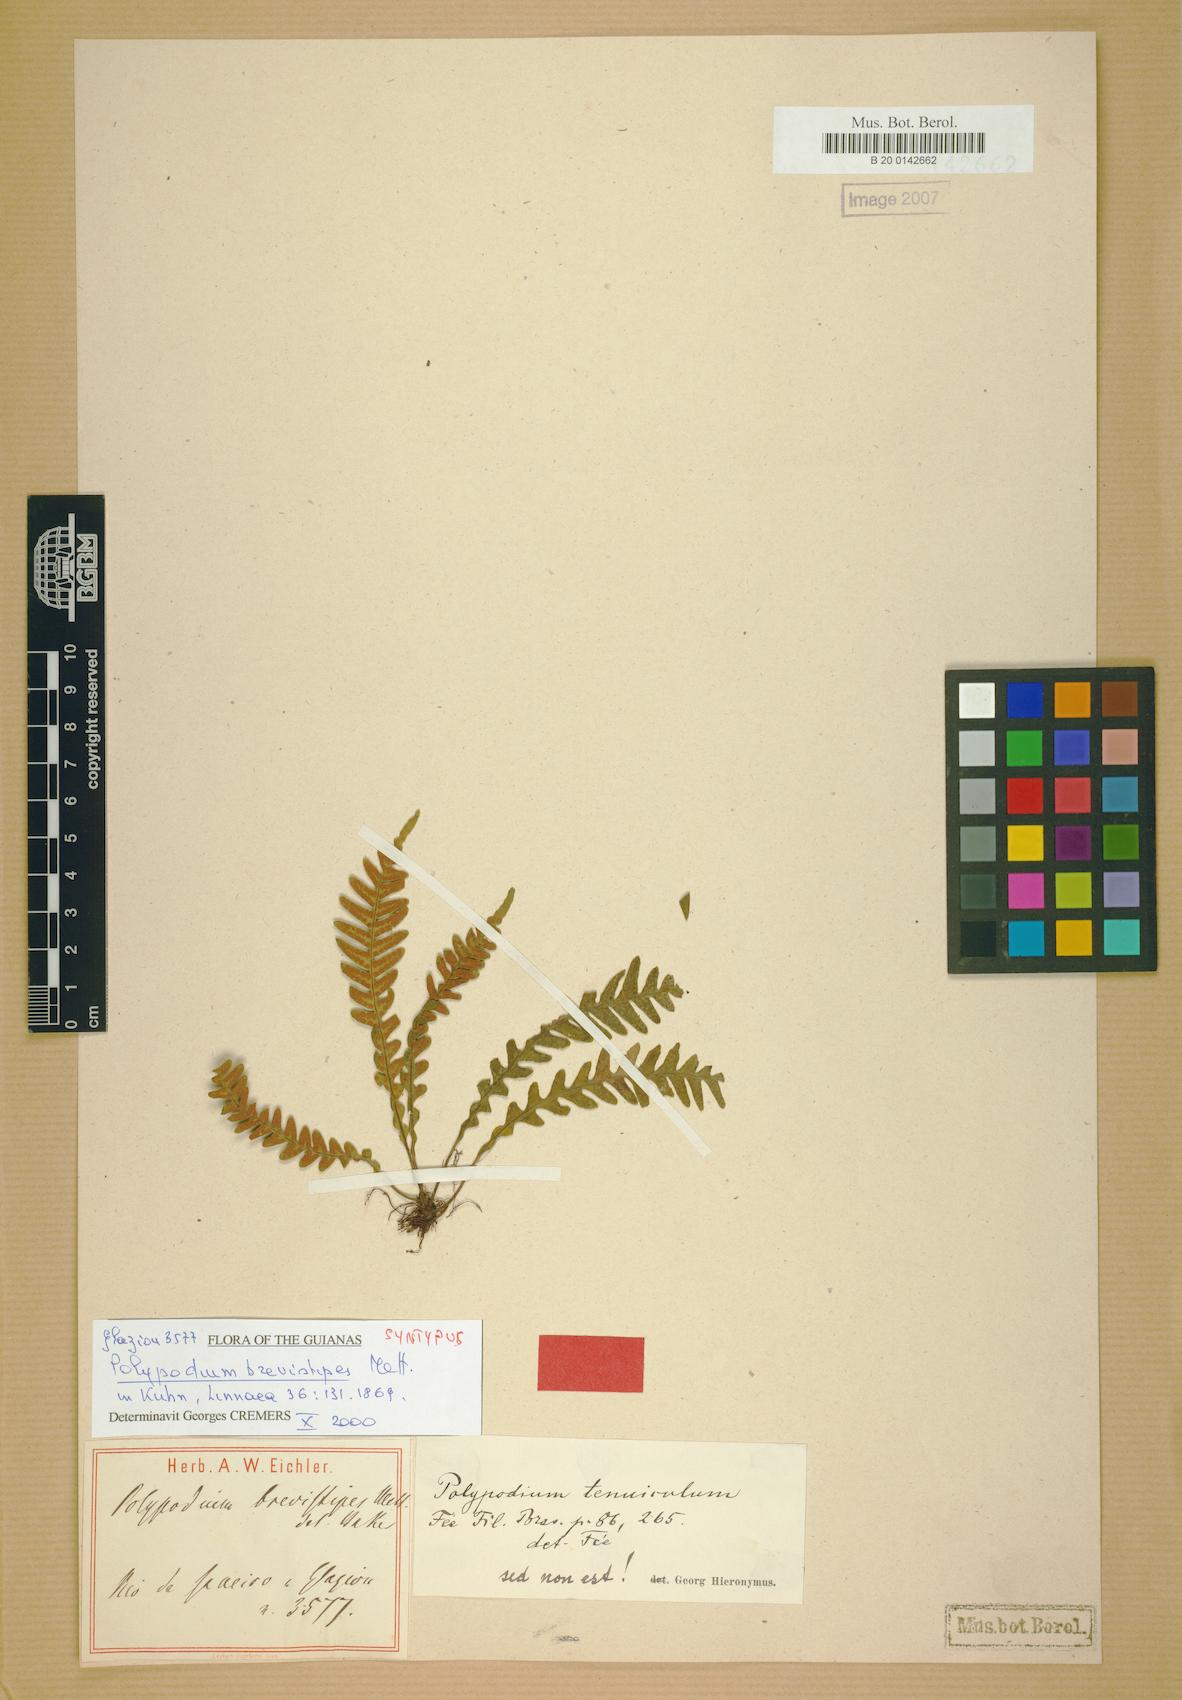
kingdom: Plantae
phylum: Tracheophyta
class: Polypodiopsida
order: Polypodiales
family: Polypodiaceae
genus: Lellingeria
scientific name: Lellingeria brasiliensis
